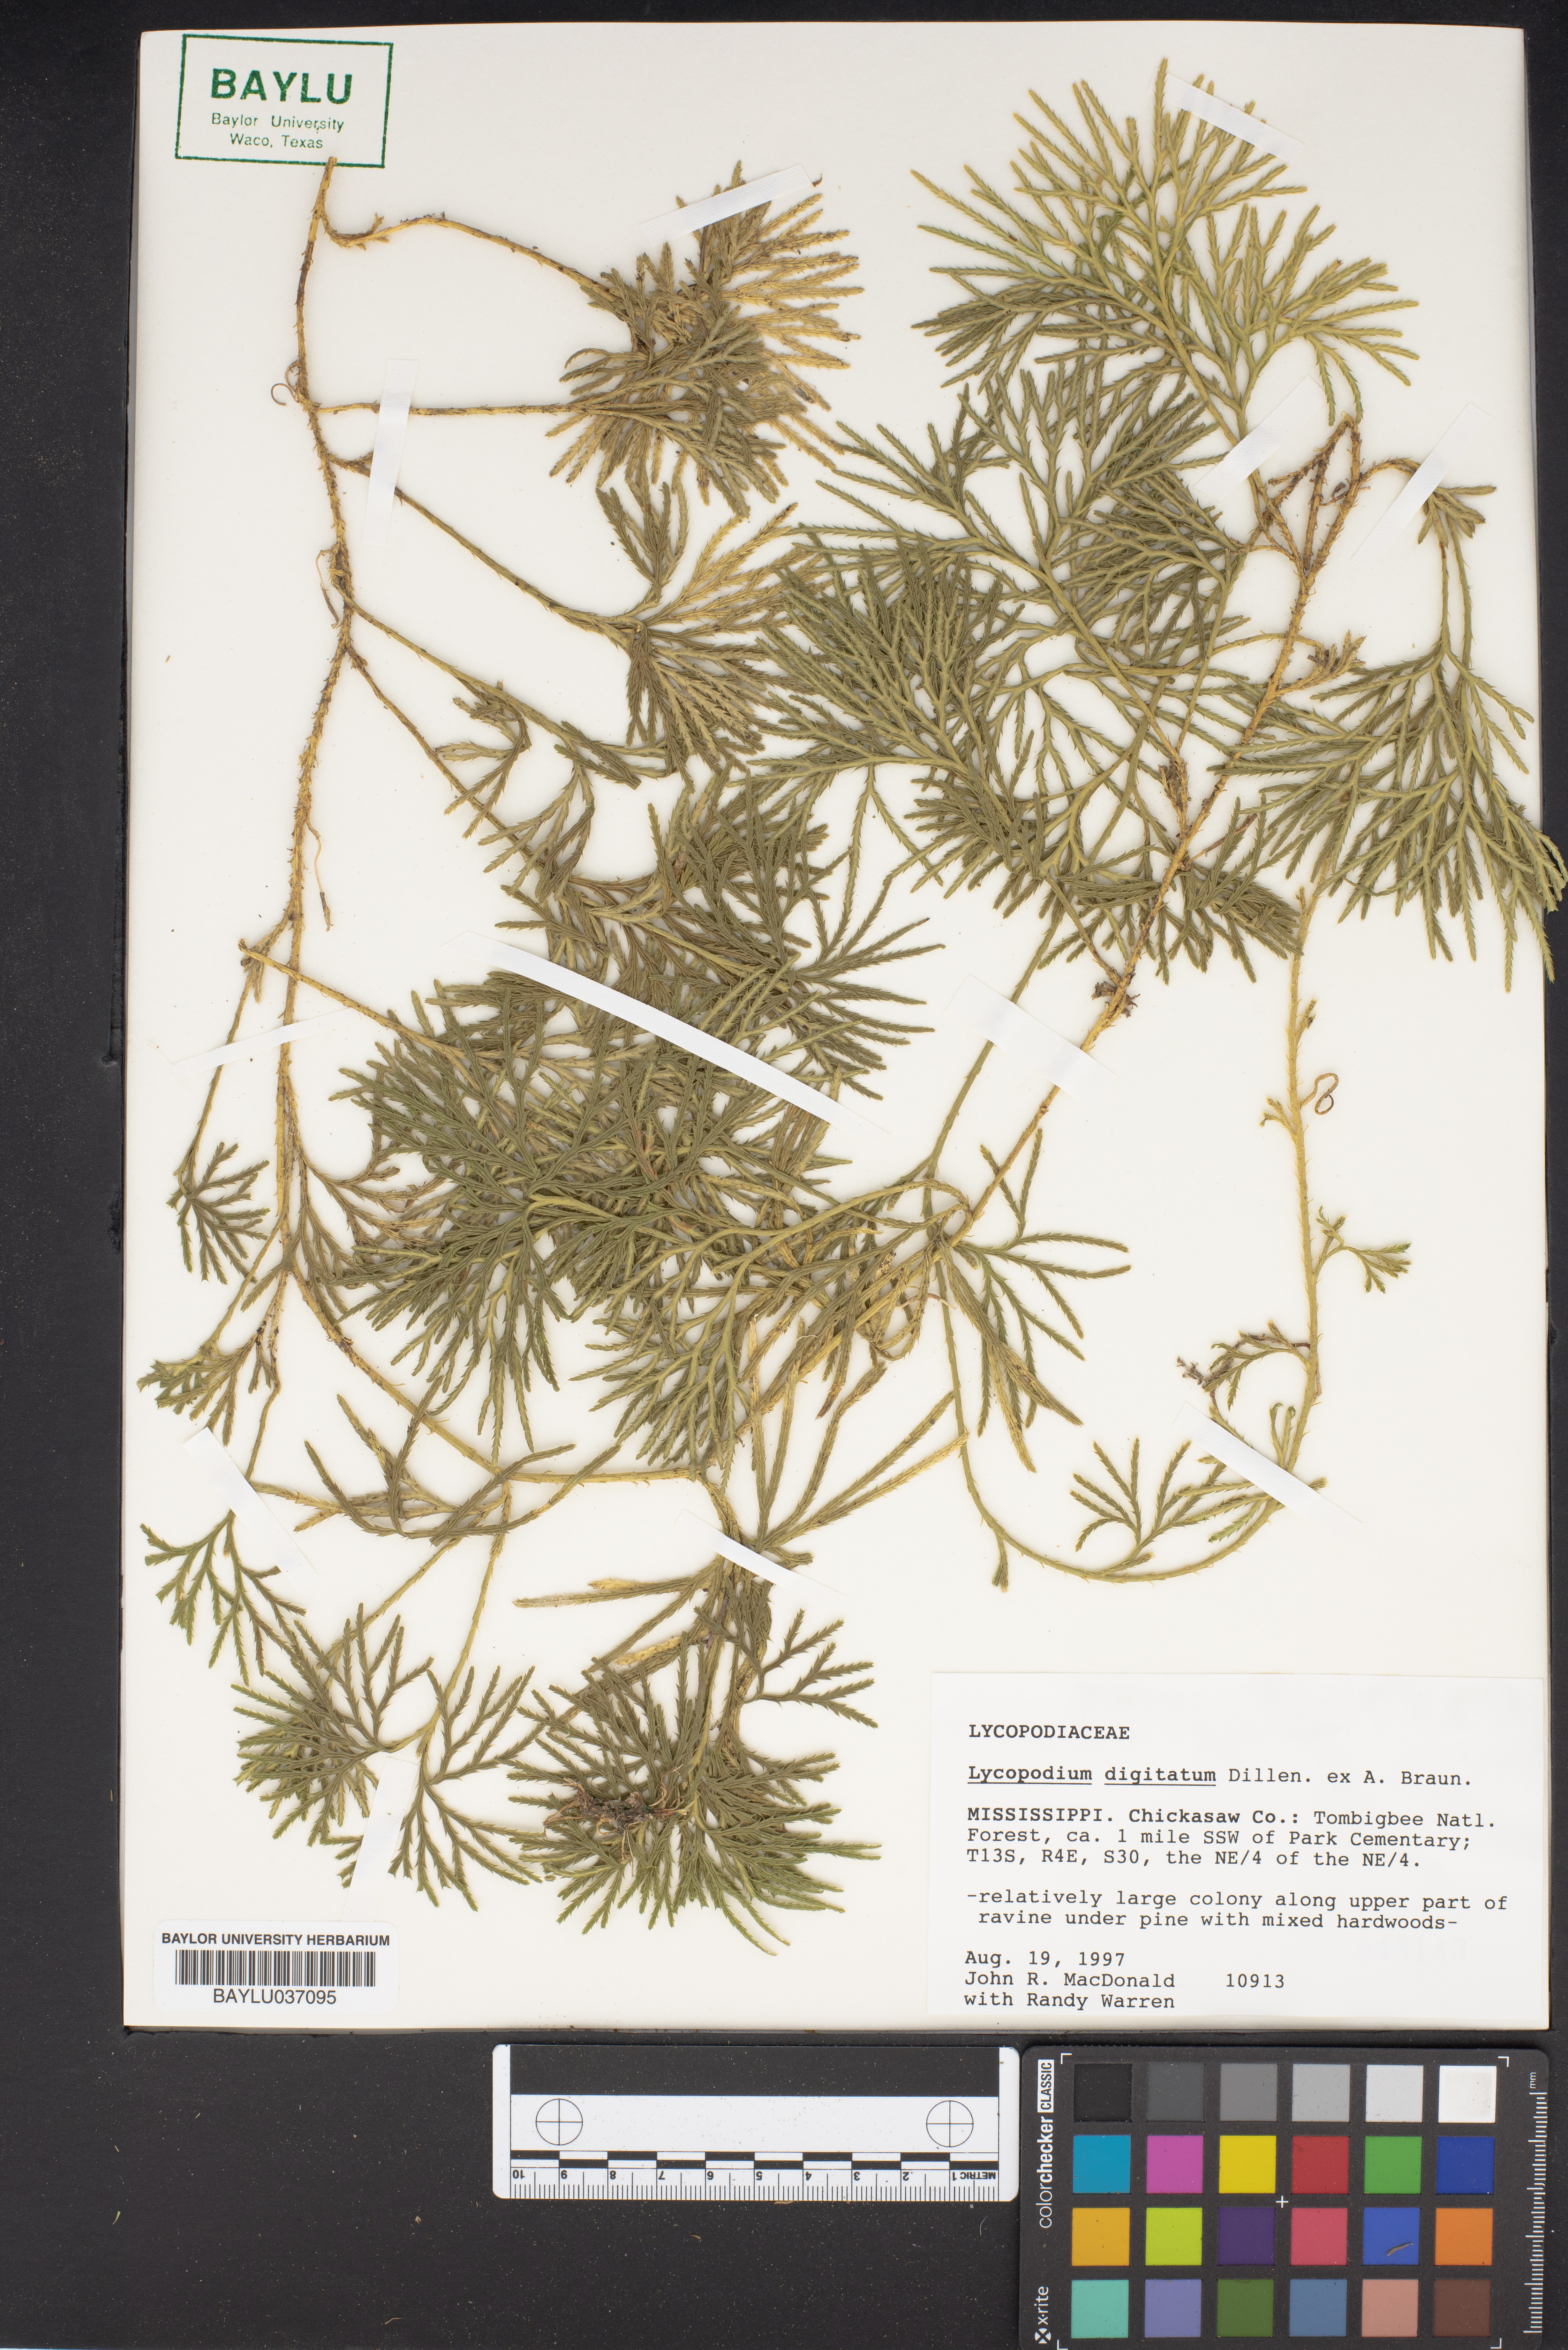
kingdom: Plantae
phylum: Tracheophyta
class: Lycopodiopsida
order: Lycopodiales
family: Lycopodiaceae
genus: Diphasiastrum
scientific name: Diphasiastrum digitatum
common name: Southern running-pine
